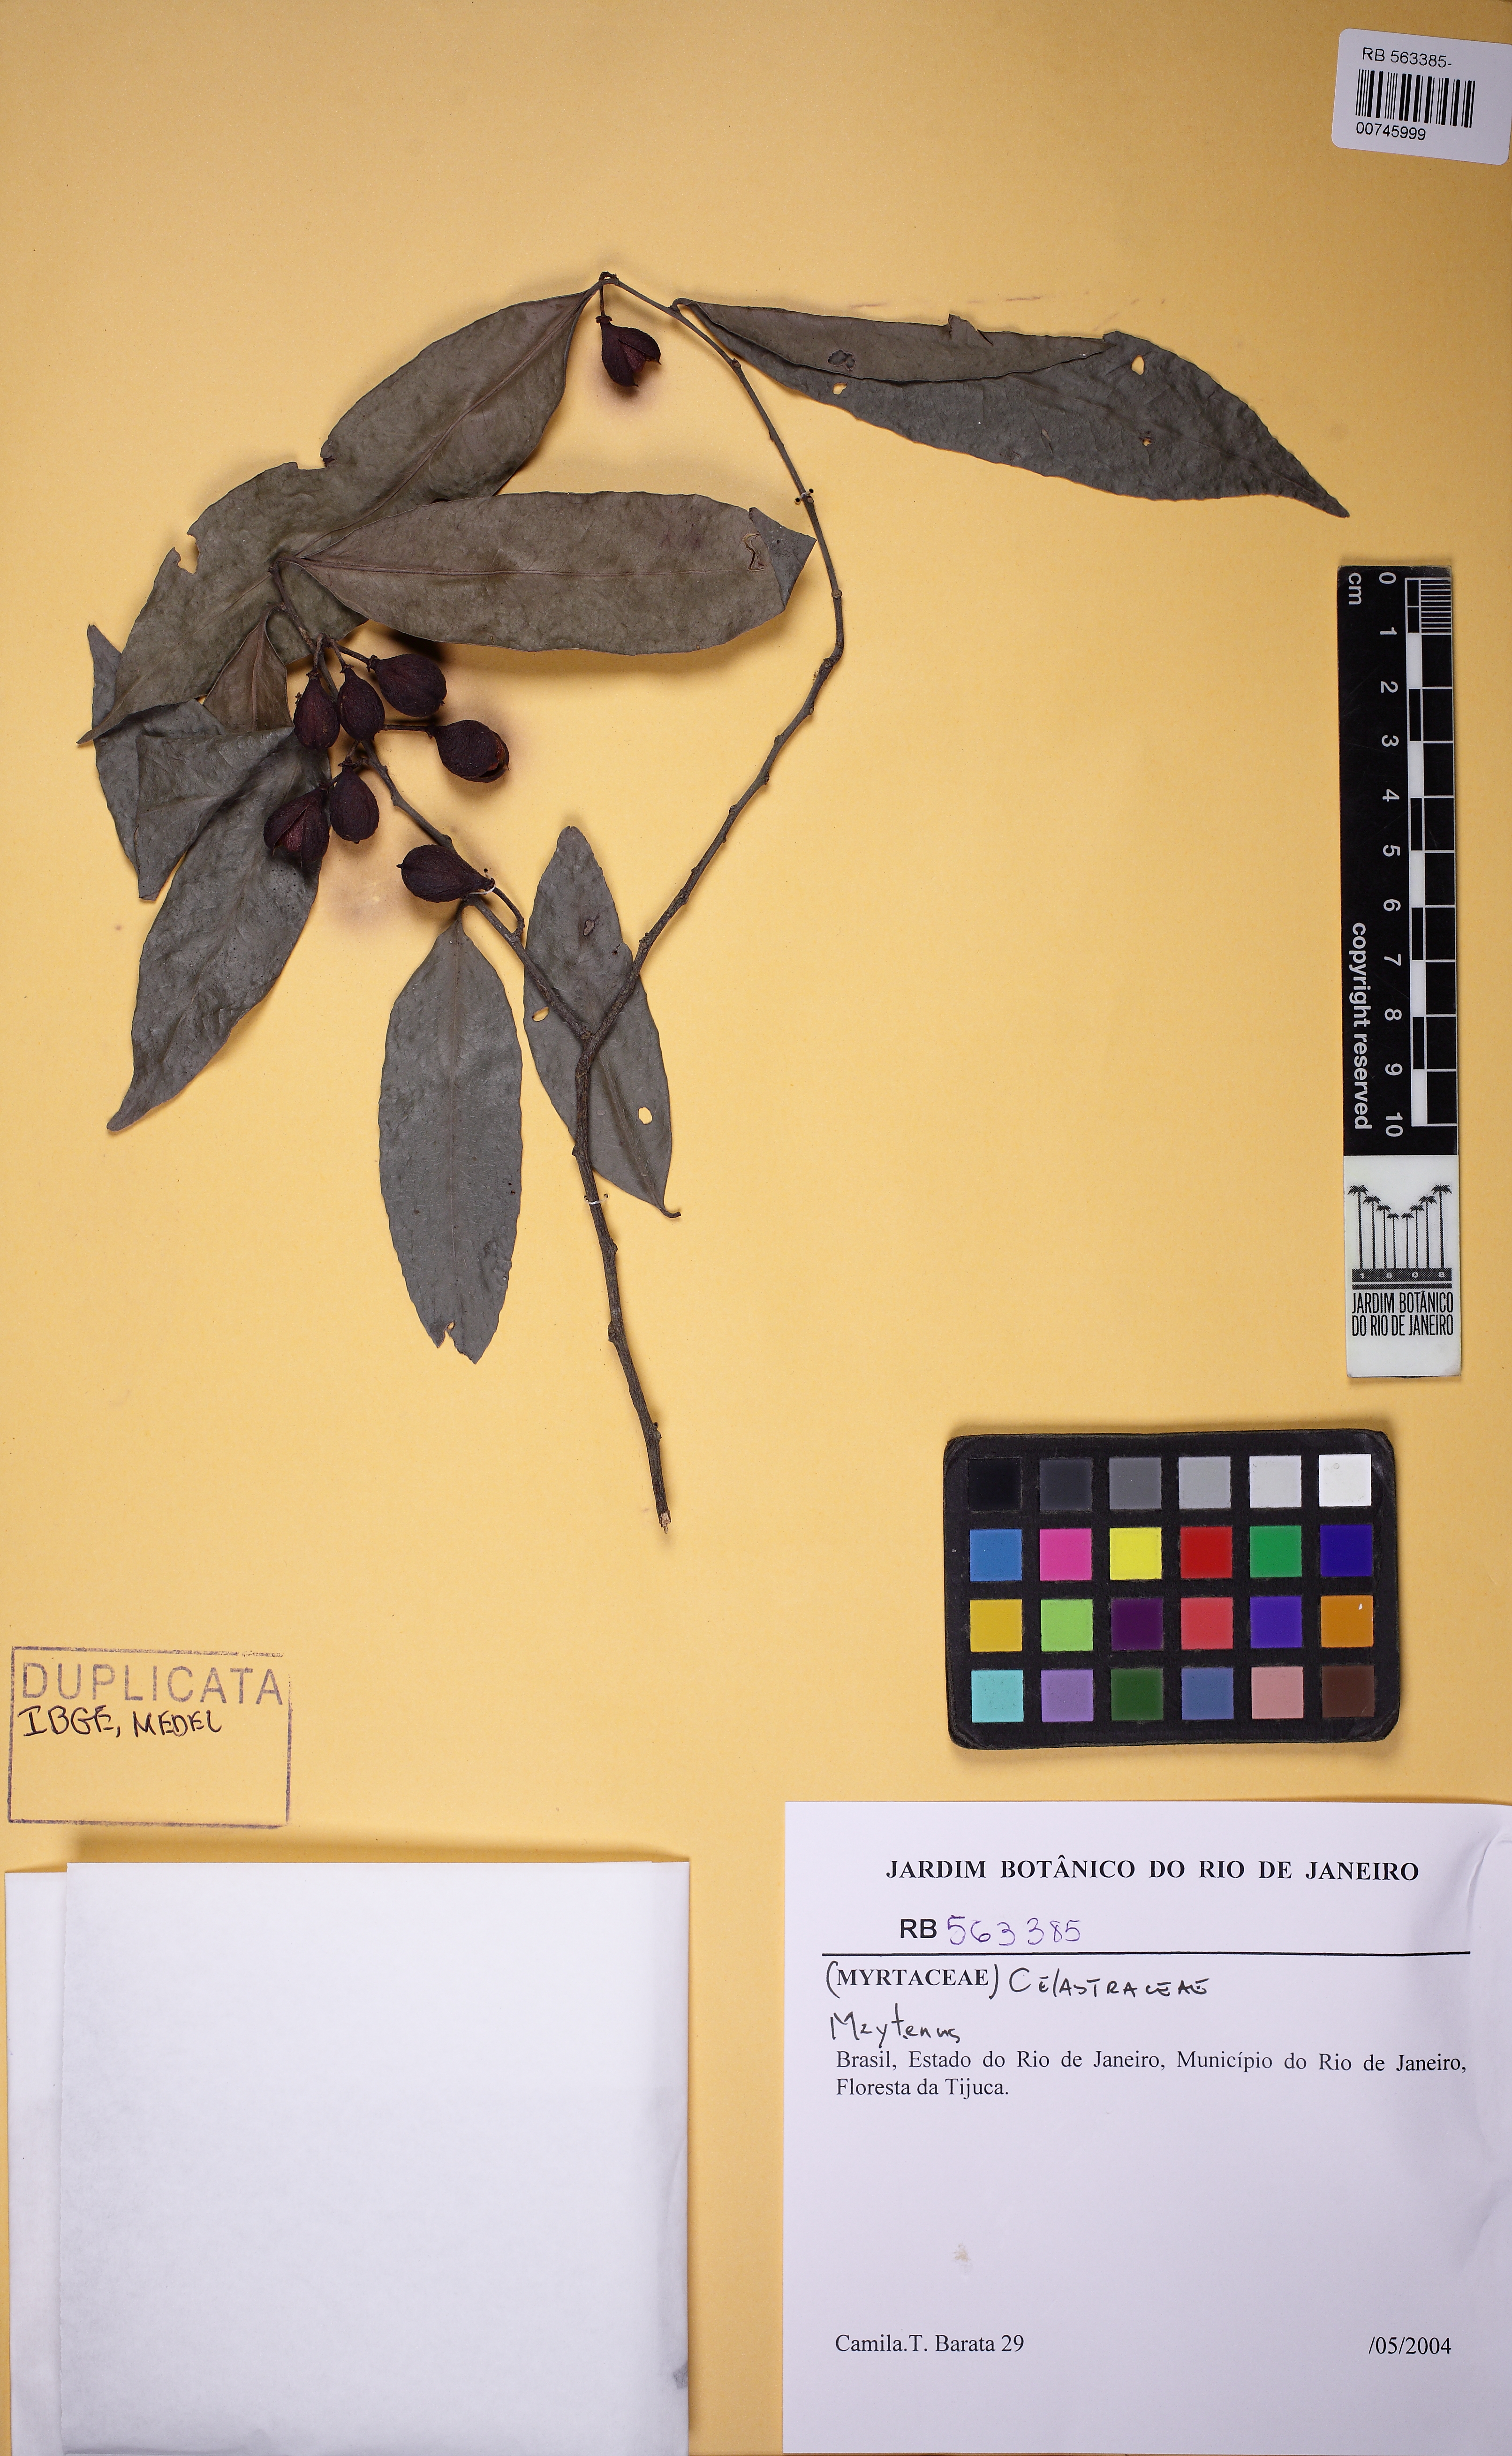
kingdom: Plantae
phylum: Tracheophyta
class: Magnoliopsida
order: Celastrales
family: Celastraceae
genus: Monteverdia
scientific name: Monteverdia cestrifolia
